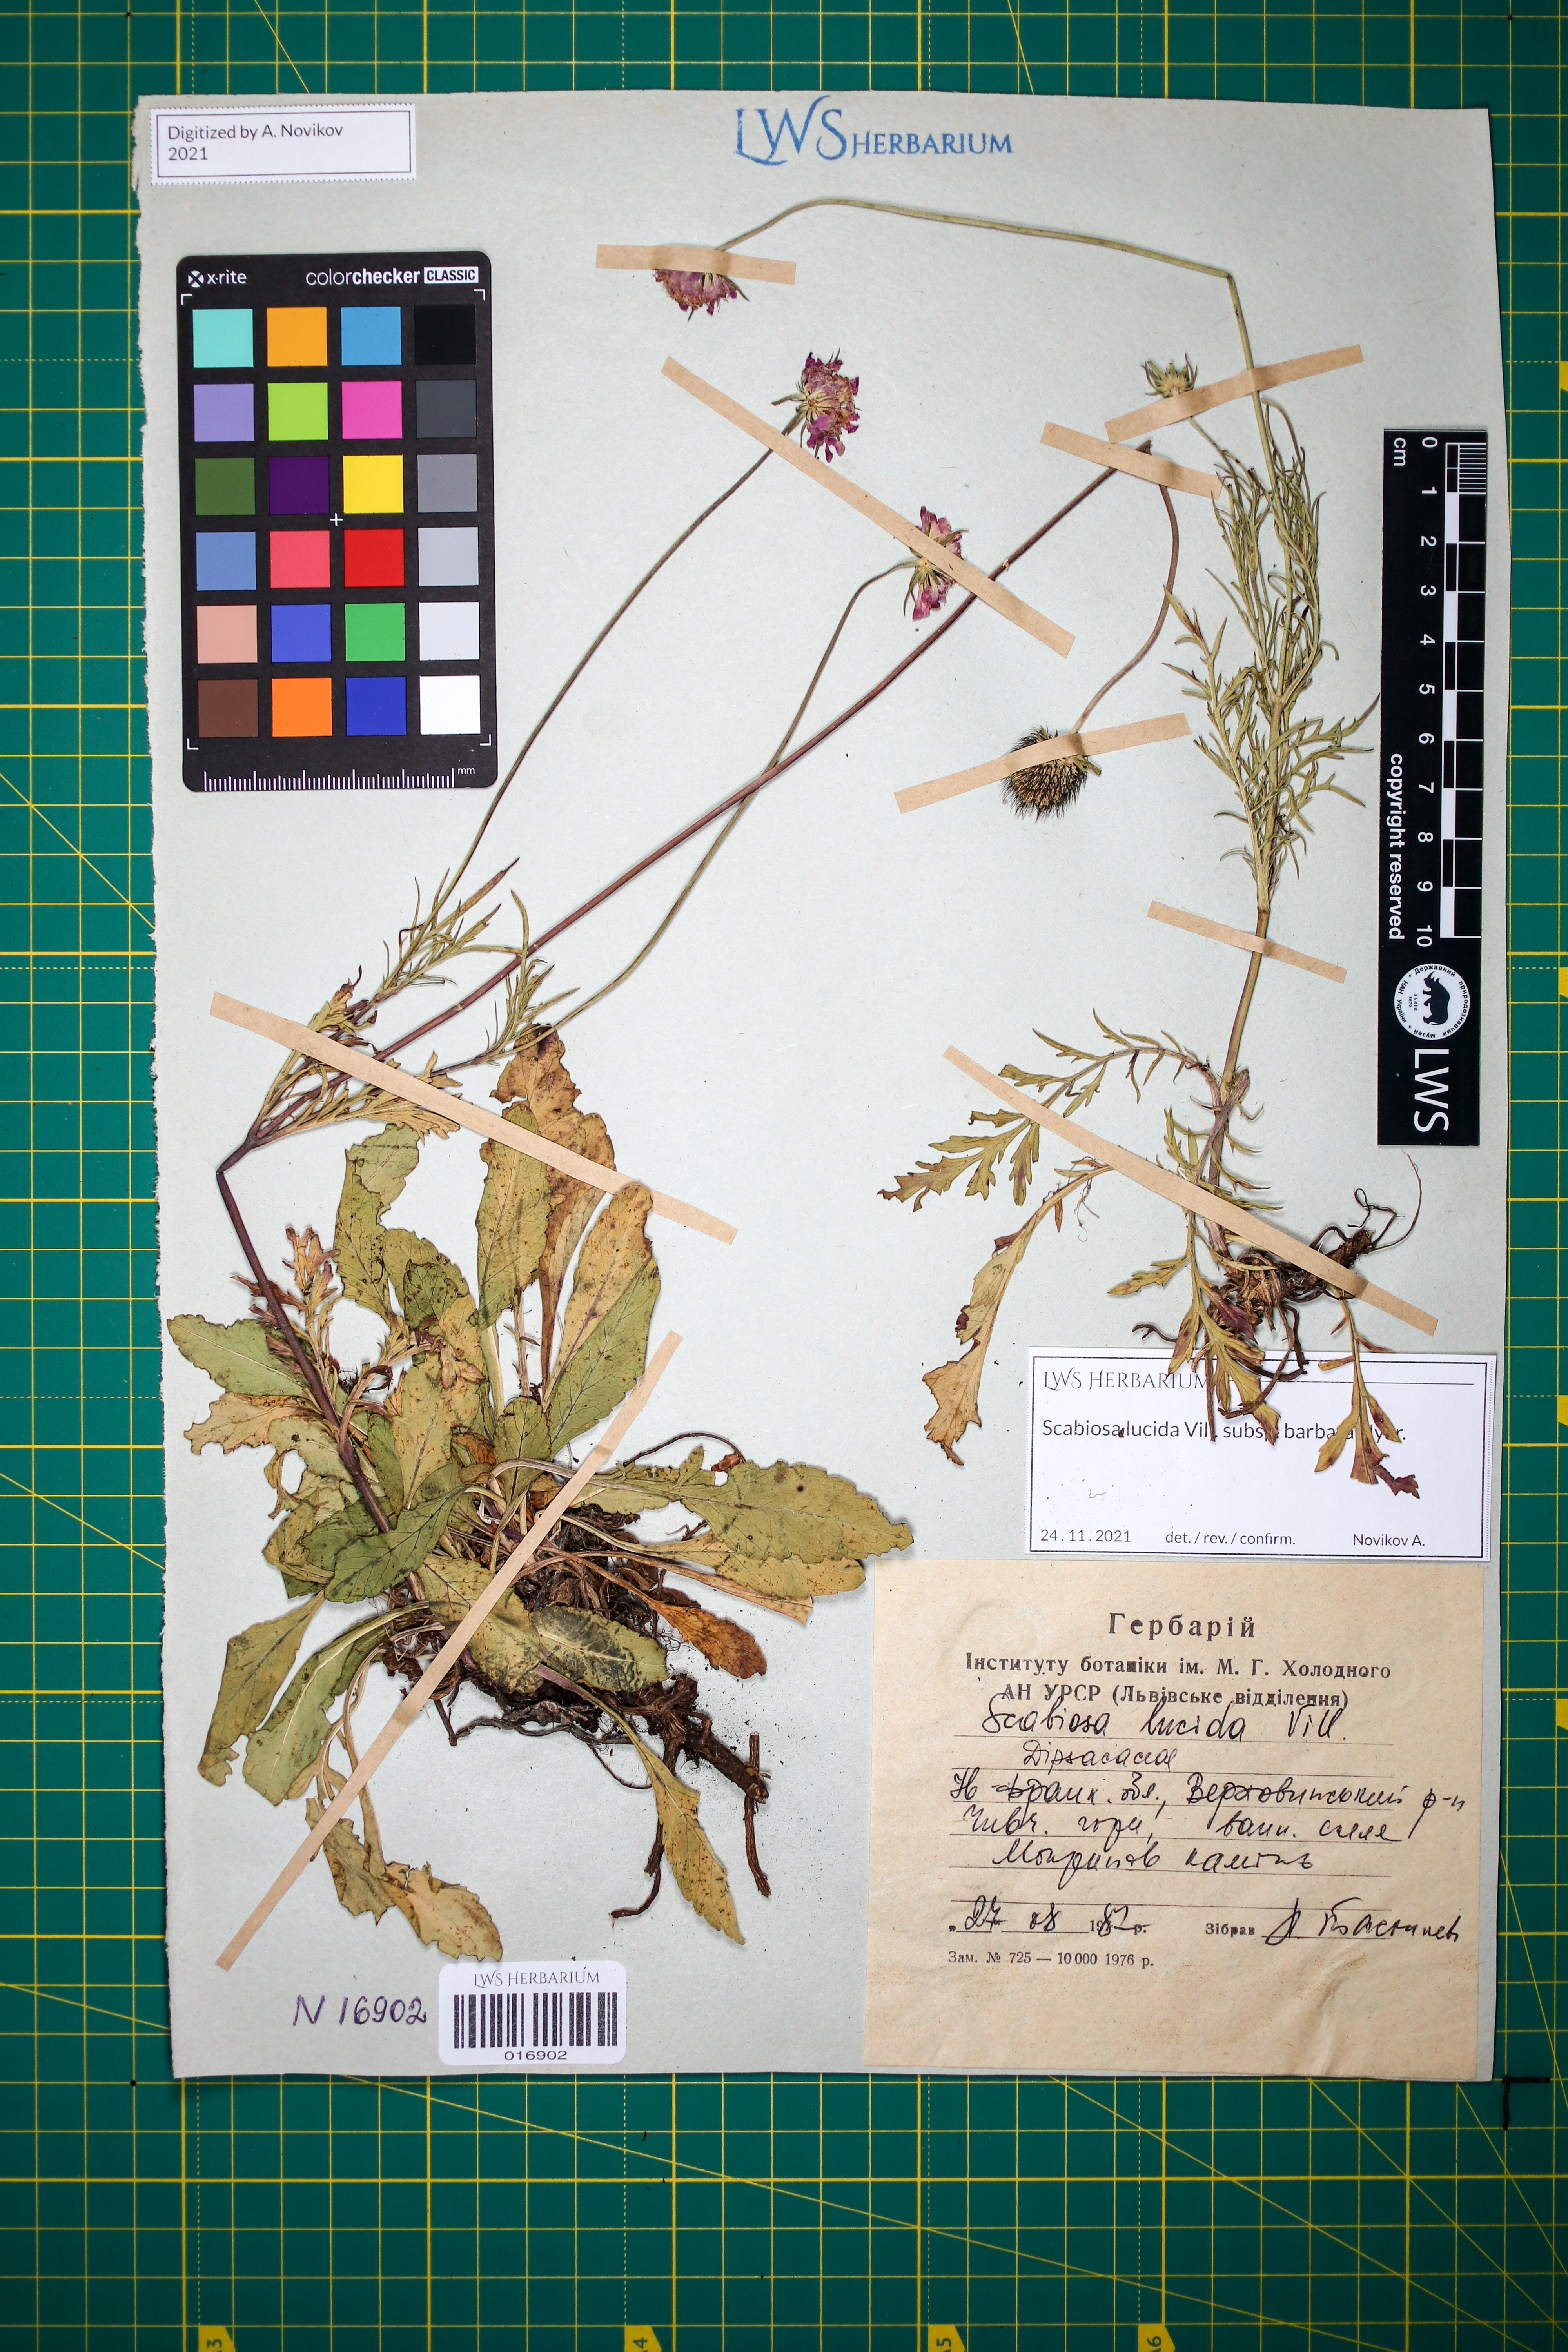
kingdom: Plantae
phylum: Tracheophyta
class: Magnoliopsida
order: Dipsacales
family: Caprifoliaceae
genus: Scabiosa
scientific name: Scabiosa lucida
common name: Shining scabious
